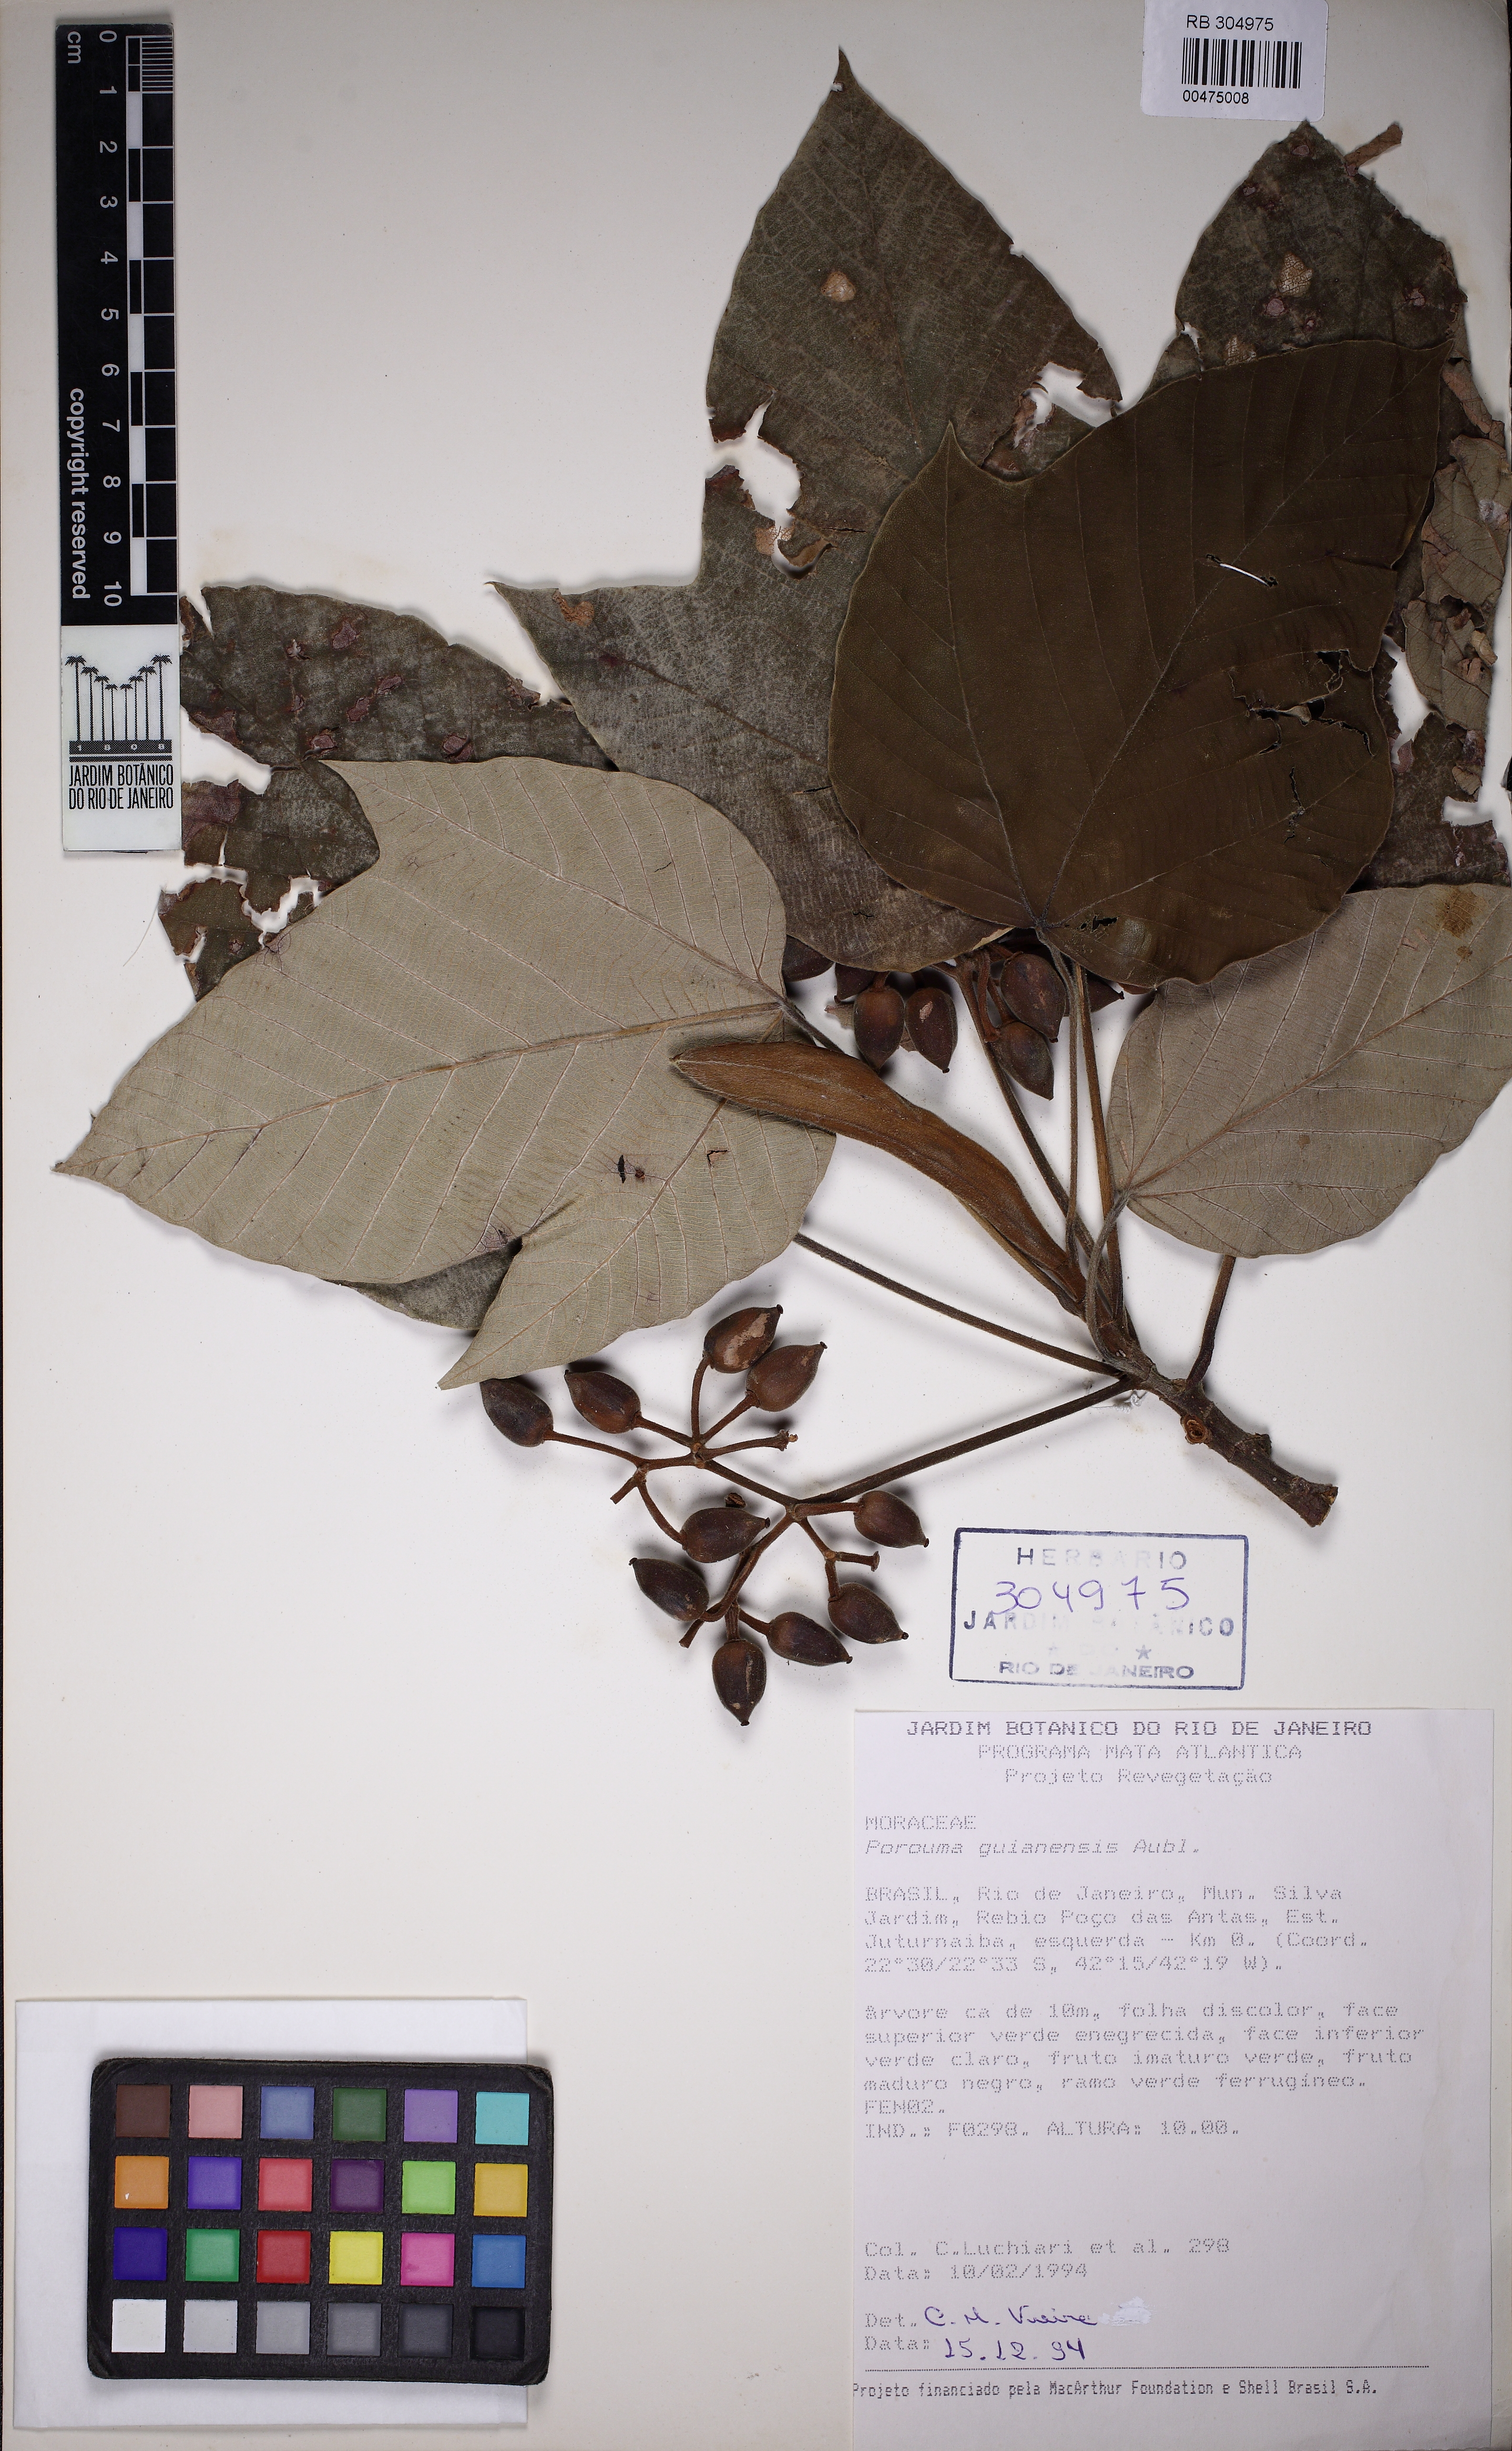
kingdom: Plantae
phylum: Tracheophyta
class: Magnoliopsida
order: Rosales
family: Urticaceae
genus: Pourouma
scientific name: Pourouma guianensis
